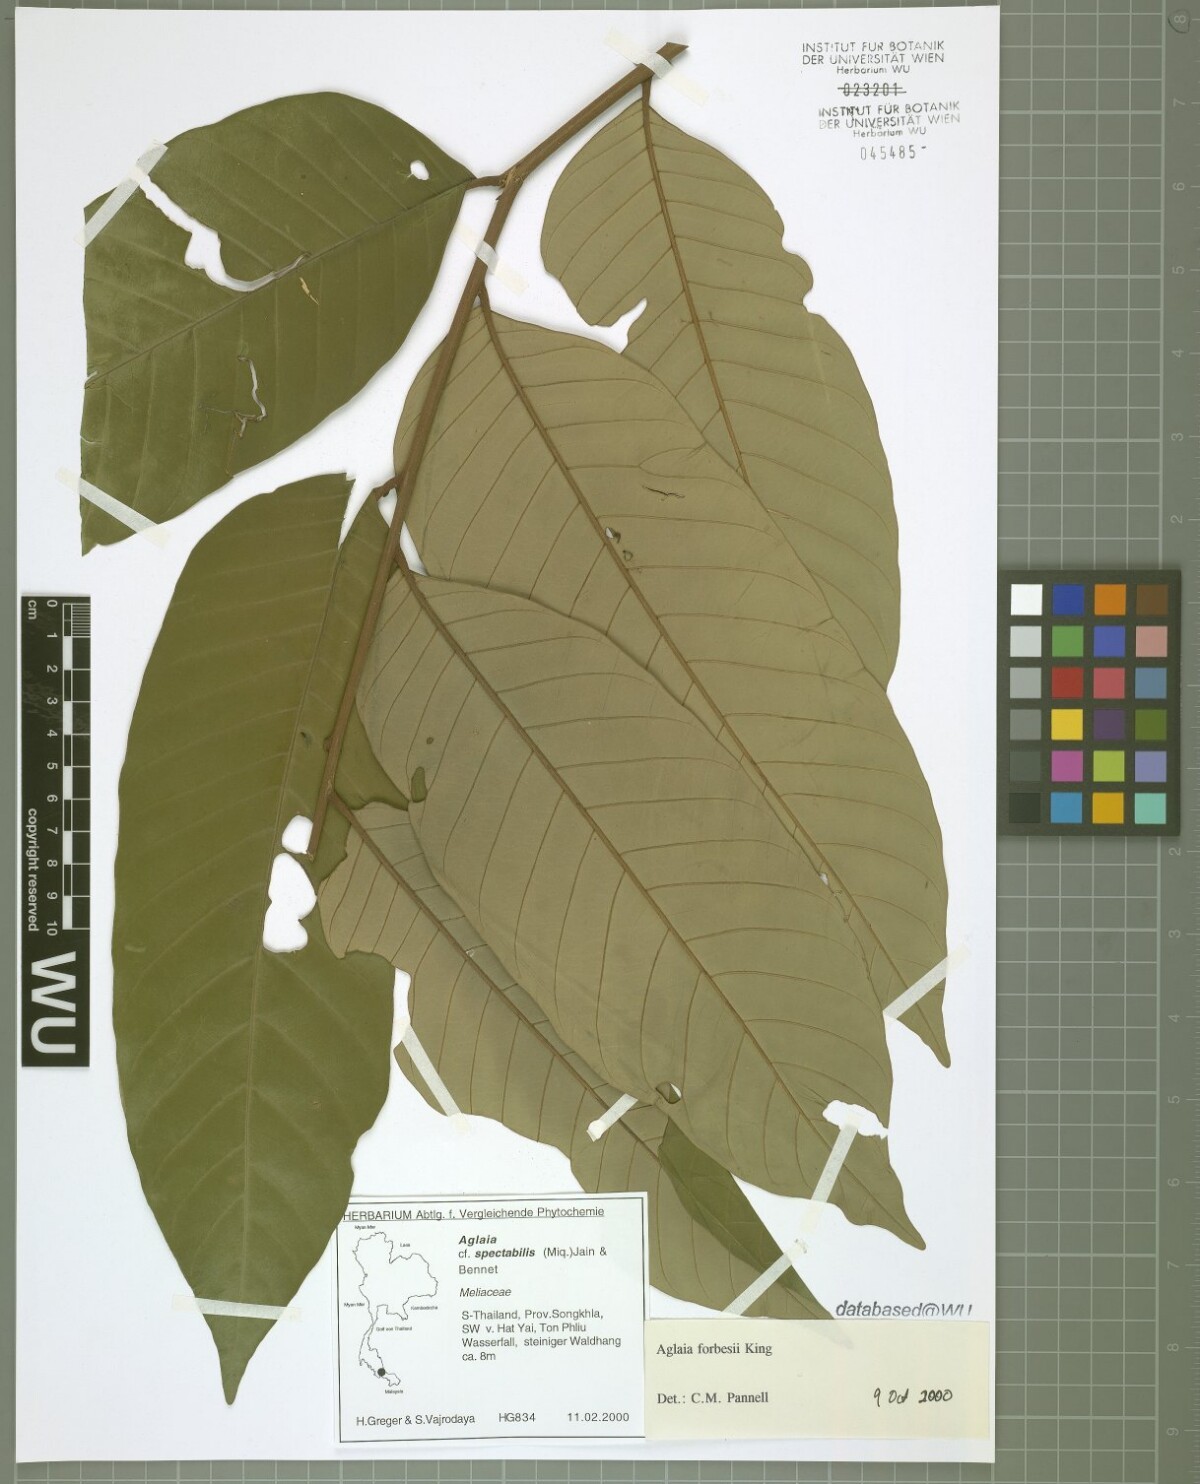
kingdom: Plantae
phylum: Tracheophyta
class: Magnoliopsida
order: Sapindales
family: Meliaceae
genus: Aglaia
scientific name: Aglaia forbesii
